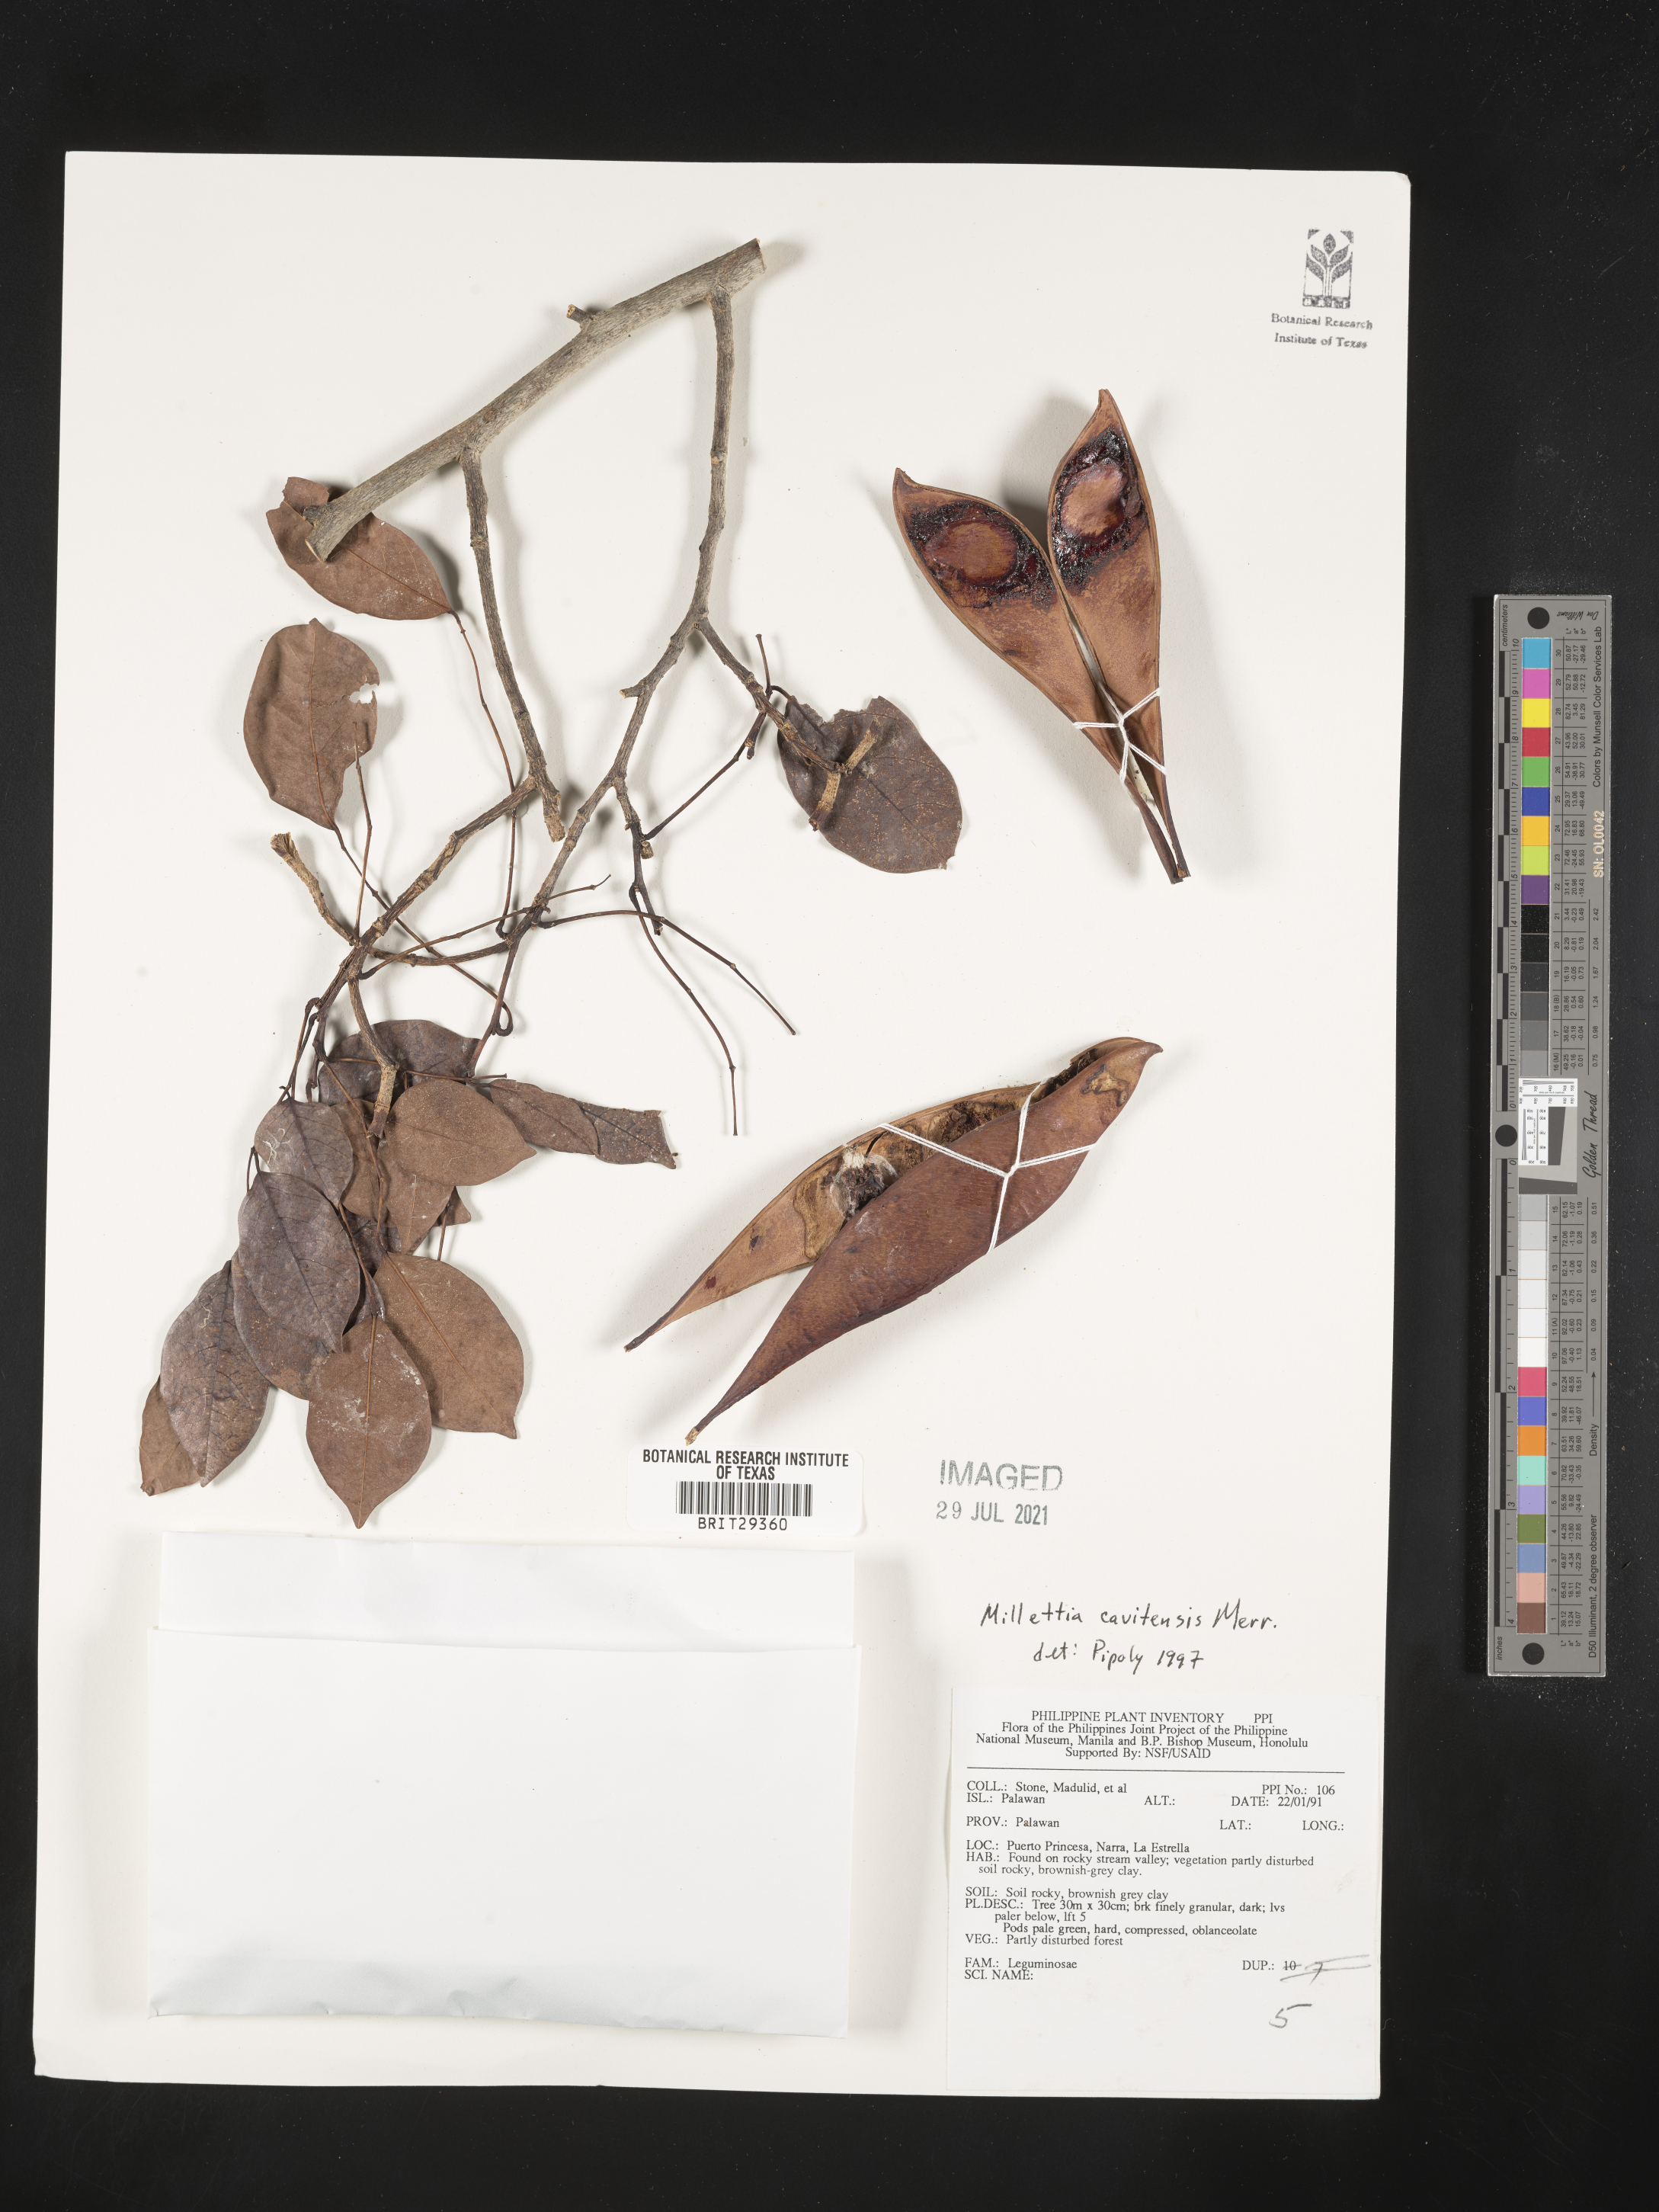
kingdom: Plantae
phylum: Tracheophyta
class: Magnoliopsida
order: Fabales
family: Fabaceae
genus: Millettia
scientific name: Millettia ahernii
